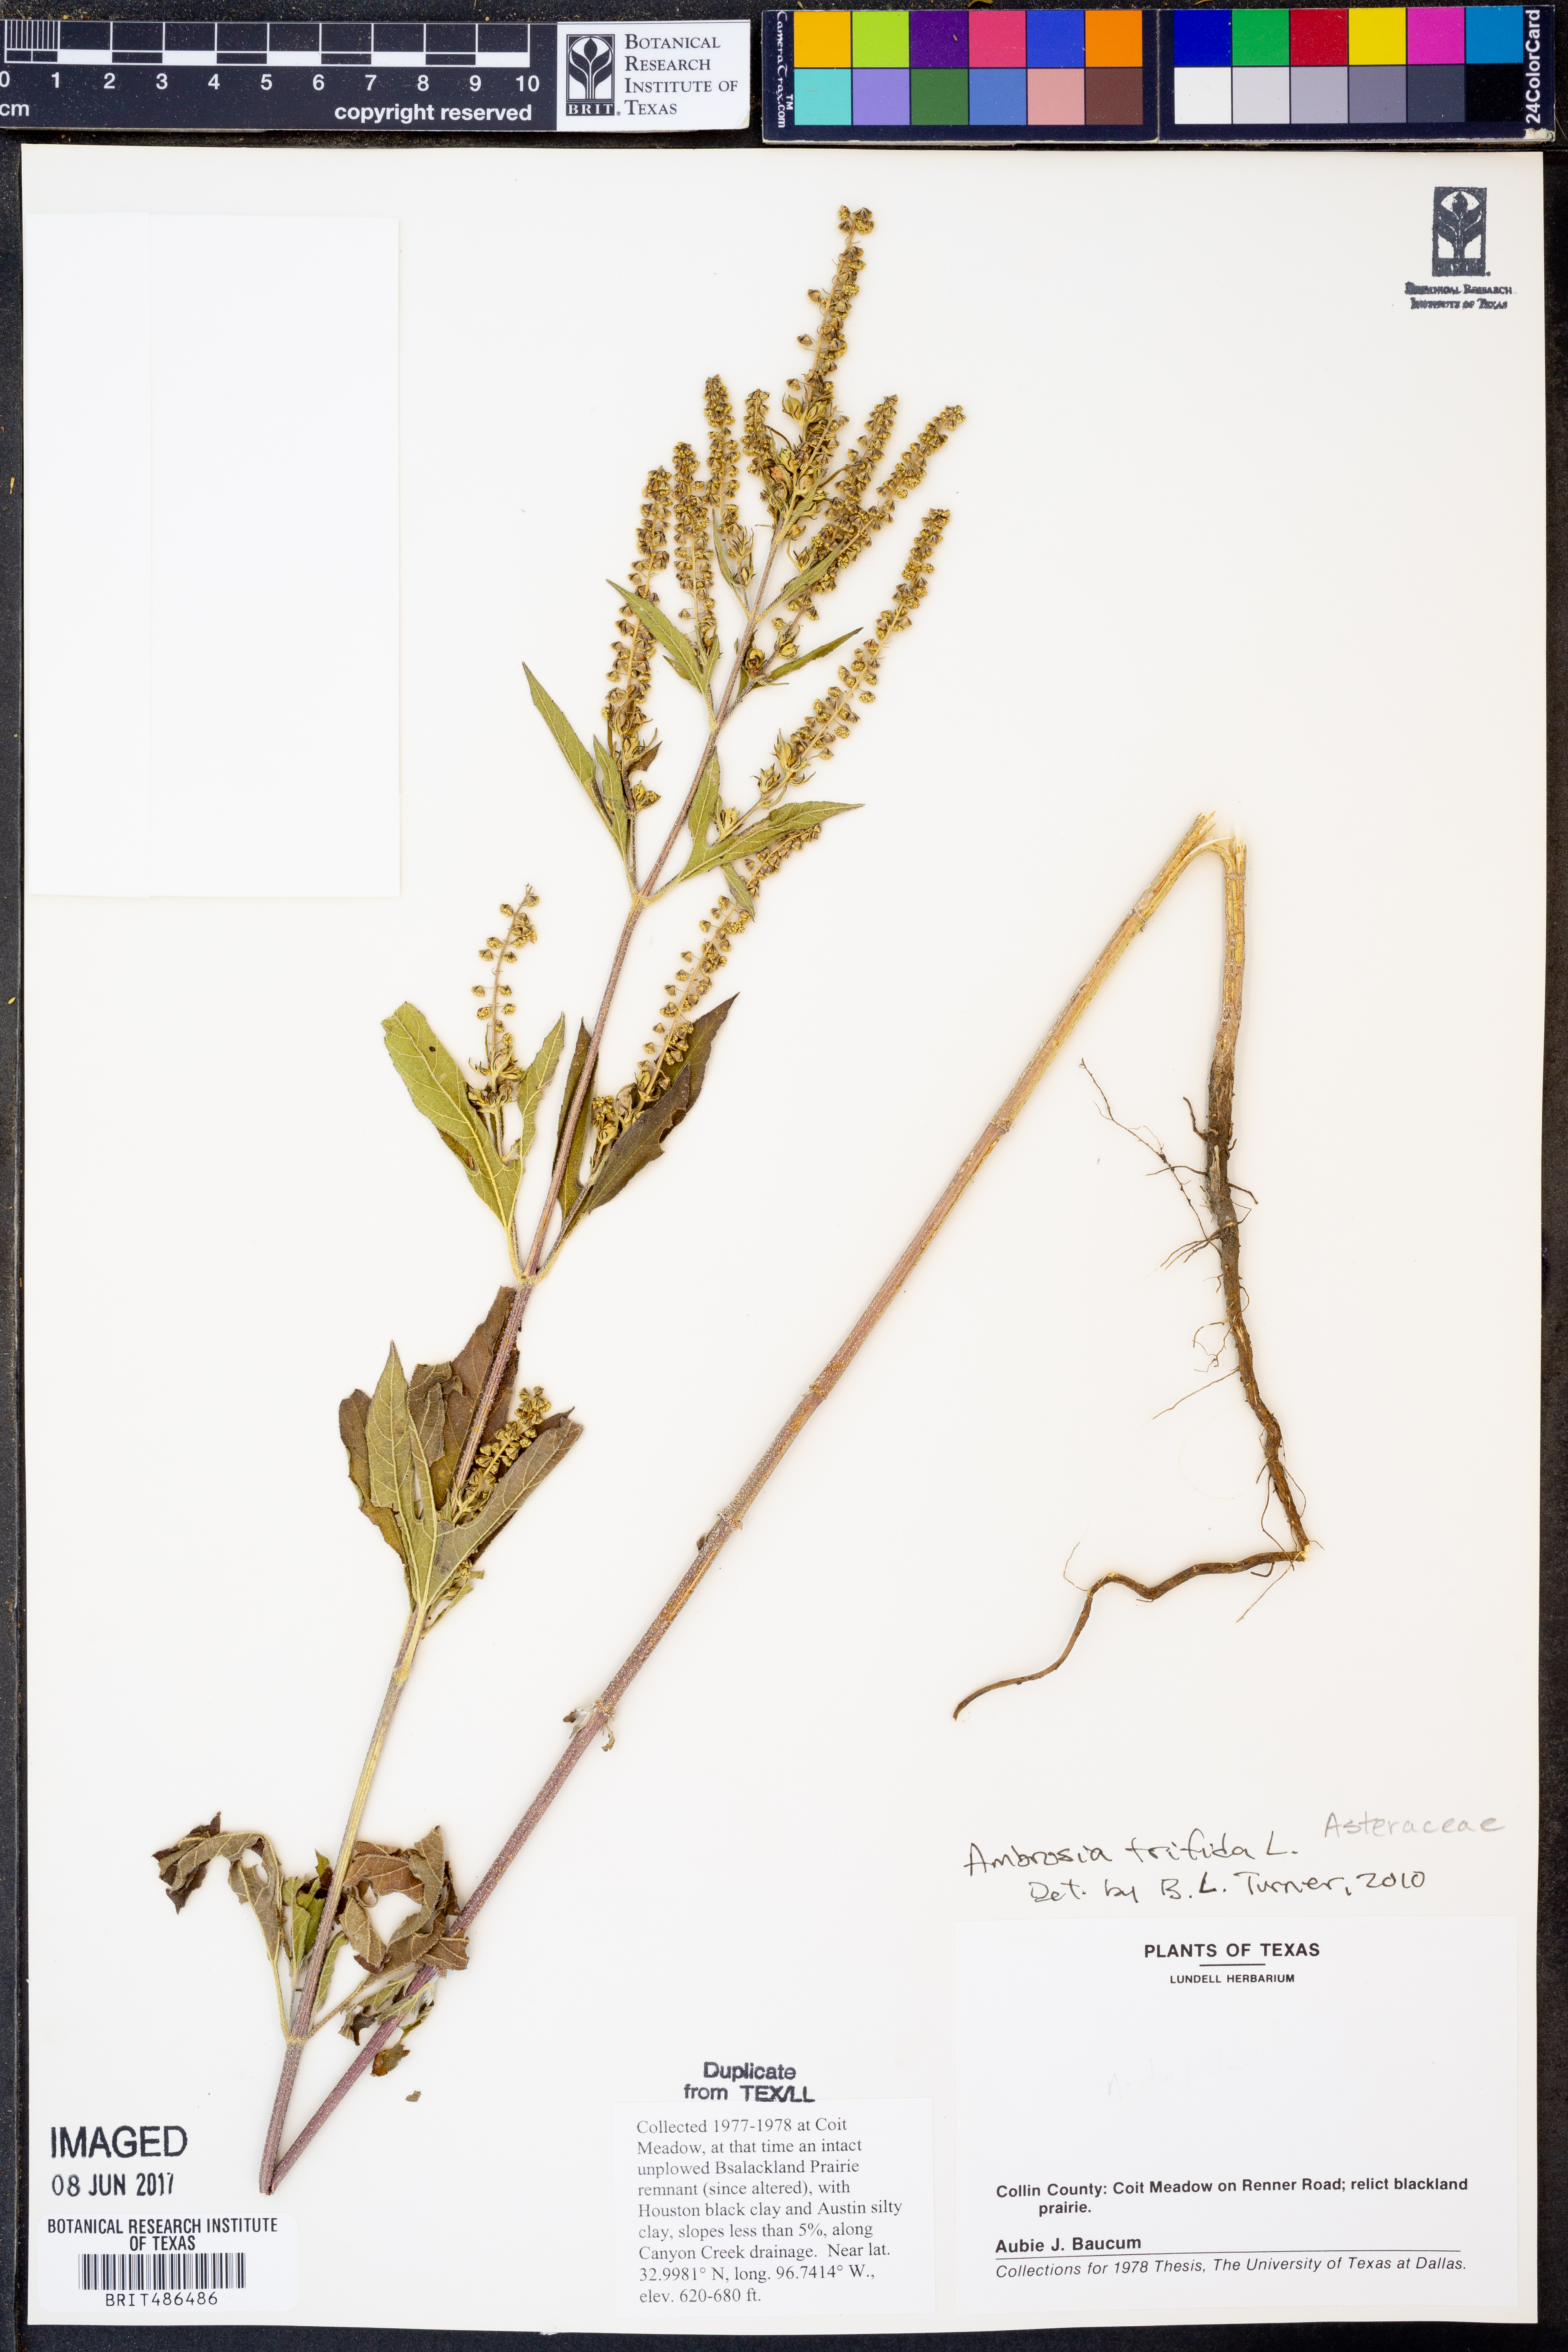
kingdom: Plantae
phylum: Tracheophyta
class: Magnoliopsida
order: Asterales
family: Asteraceae
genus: Ambrosia
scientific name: Ambrosia trifida
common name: Giant ragweed
